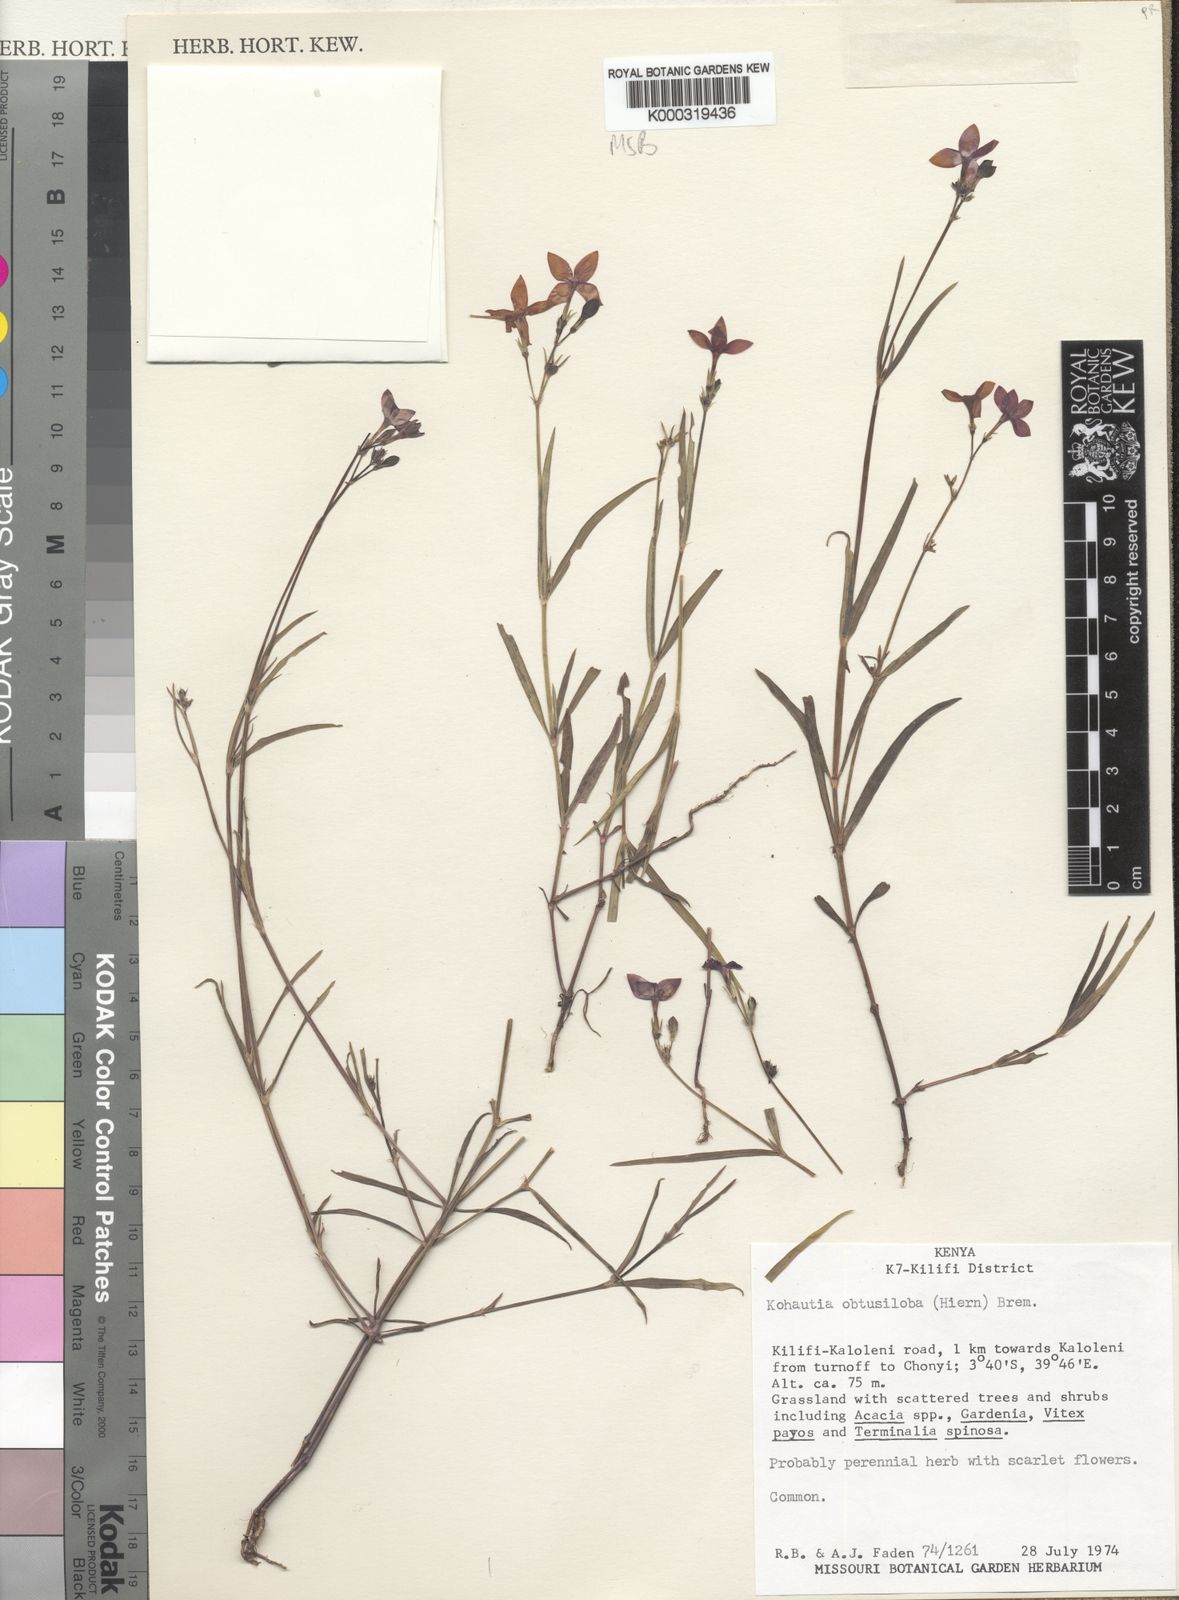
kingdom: Plantae
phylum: Tracheophyta
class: Magnoliopsida
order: Gentianales
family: Rubiaceae
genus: Cordylostigma
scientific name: Cordylostigma obtusilobum
